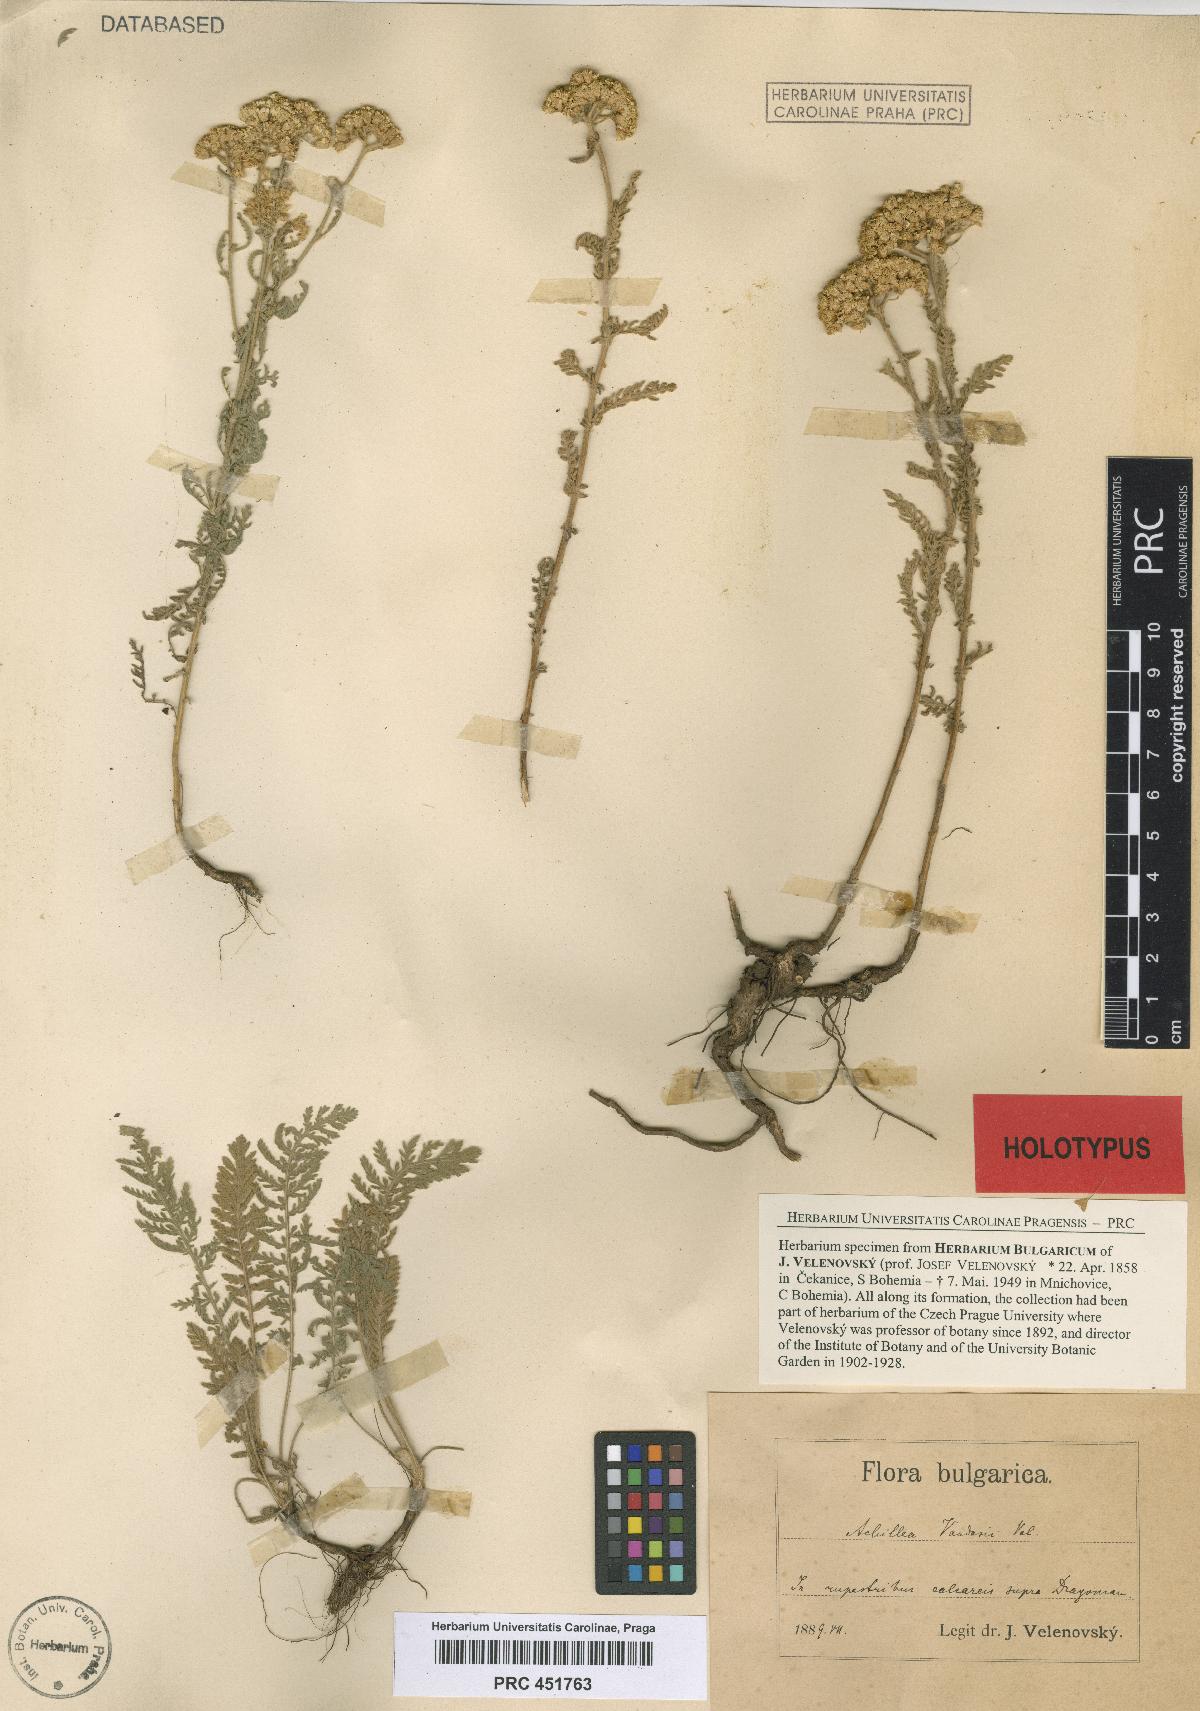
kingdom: Plantae
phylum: Tracheophyta
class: Magnoliopsida
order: Asterales
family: Asteraceae
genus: Achillea
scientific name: Achillea vandasii
